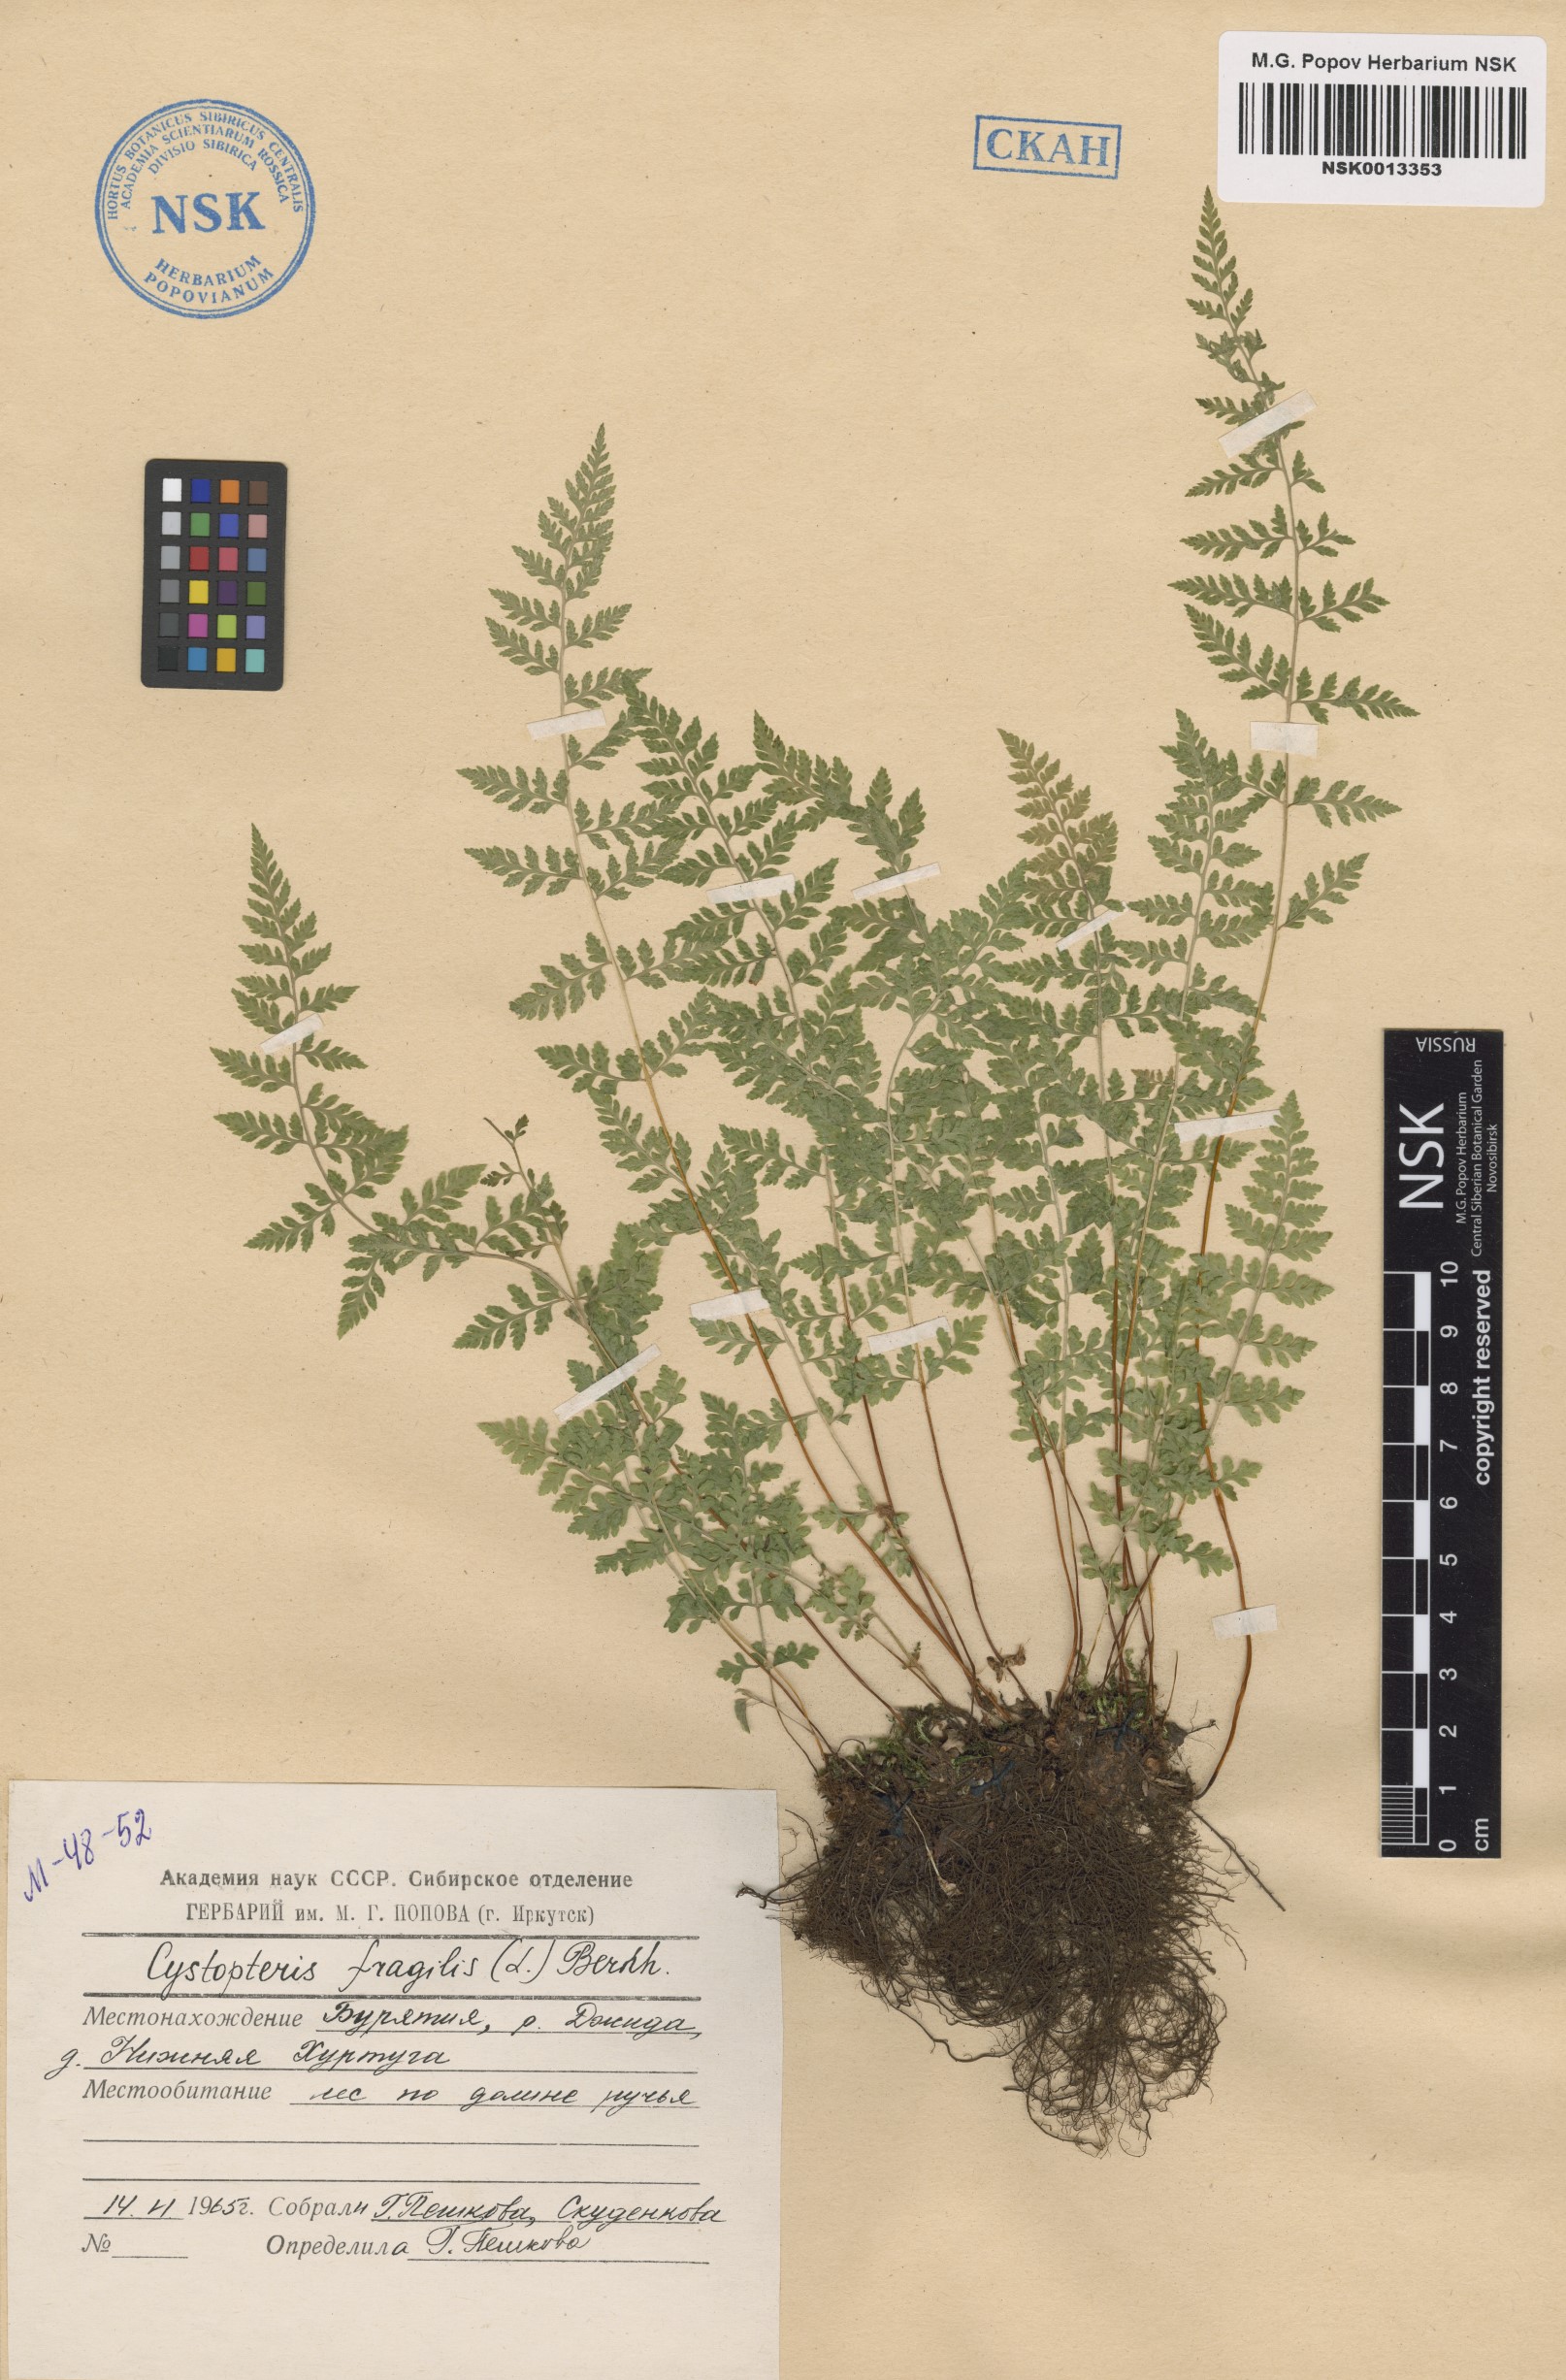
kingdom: Plantae
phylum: Tracheophyta
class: Polypodiopsida
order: Polypodiales
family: Cystopteridaceae
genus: Cystopteris
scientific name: Cystopteris fragilis
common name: Brittle bladder fern
